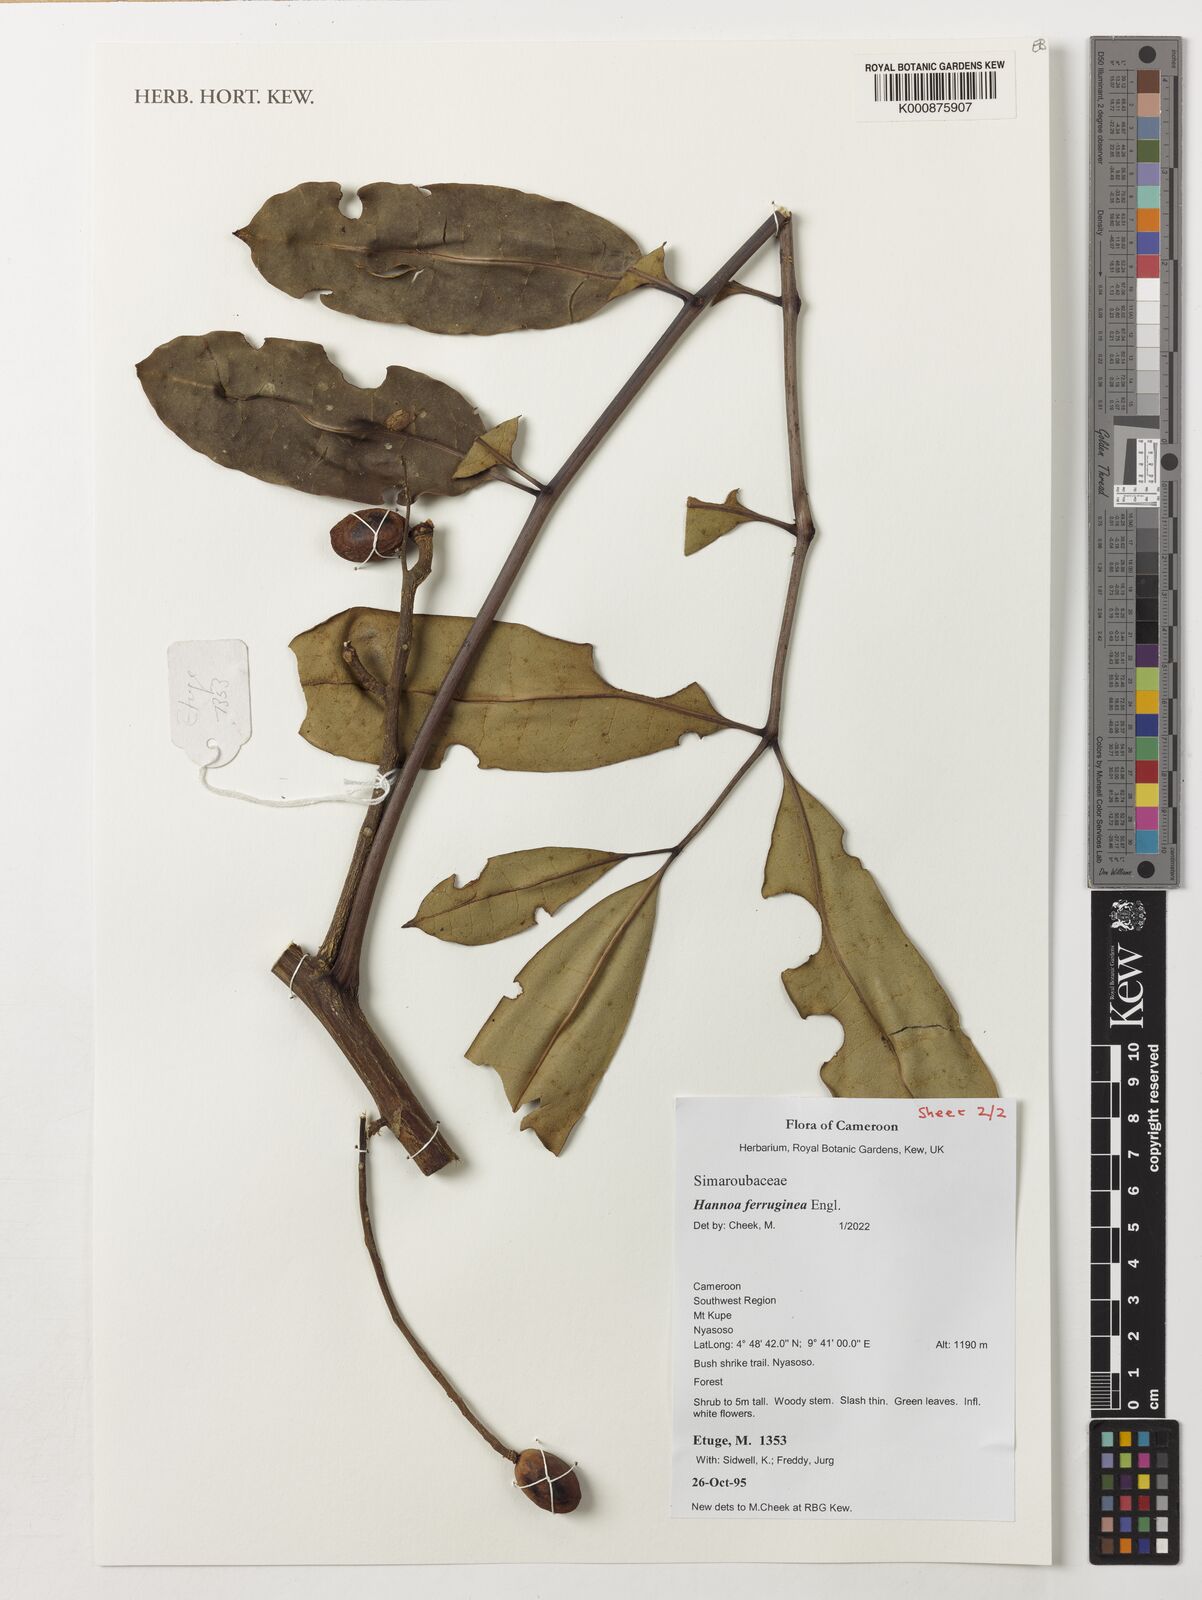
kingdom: Plantae
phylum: Tracheophyta
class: Magnoliopsida
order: Sapindales
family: Simaroubaceae
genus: Hannoa
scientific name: Hannoa ferruginea
